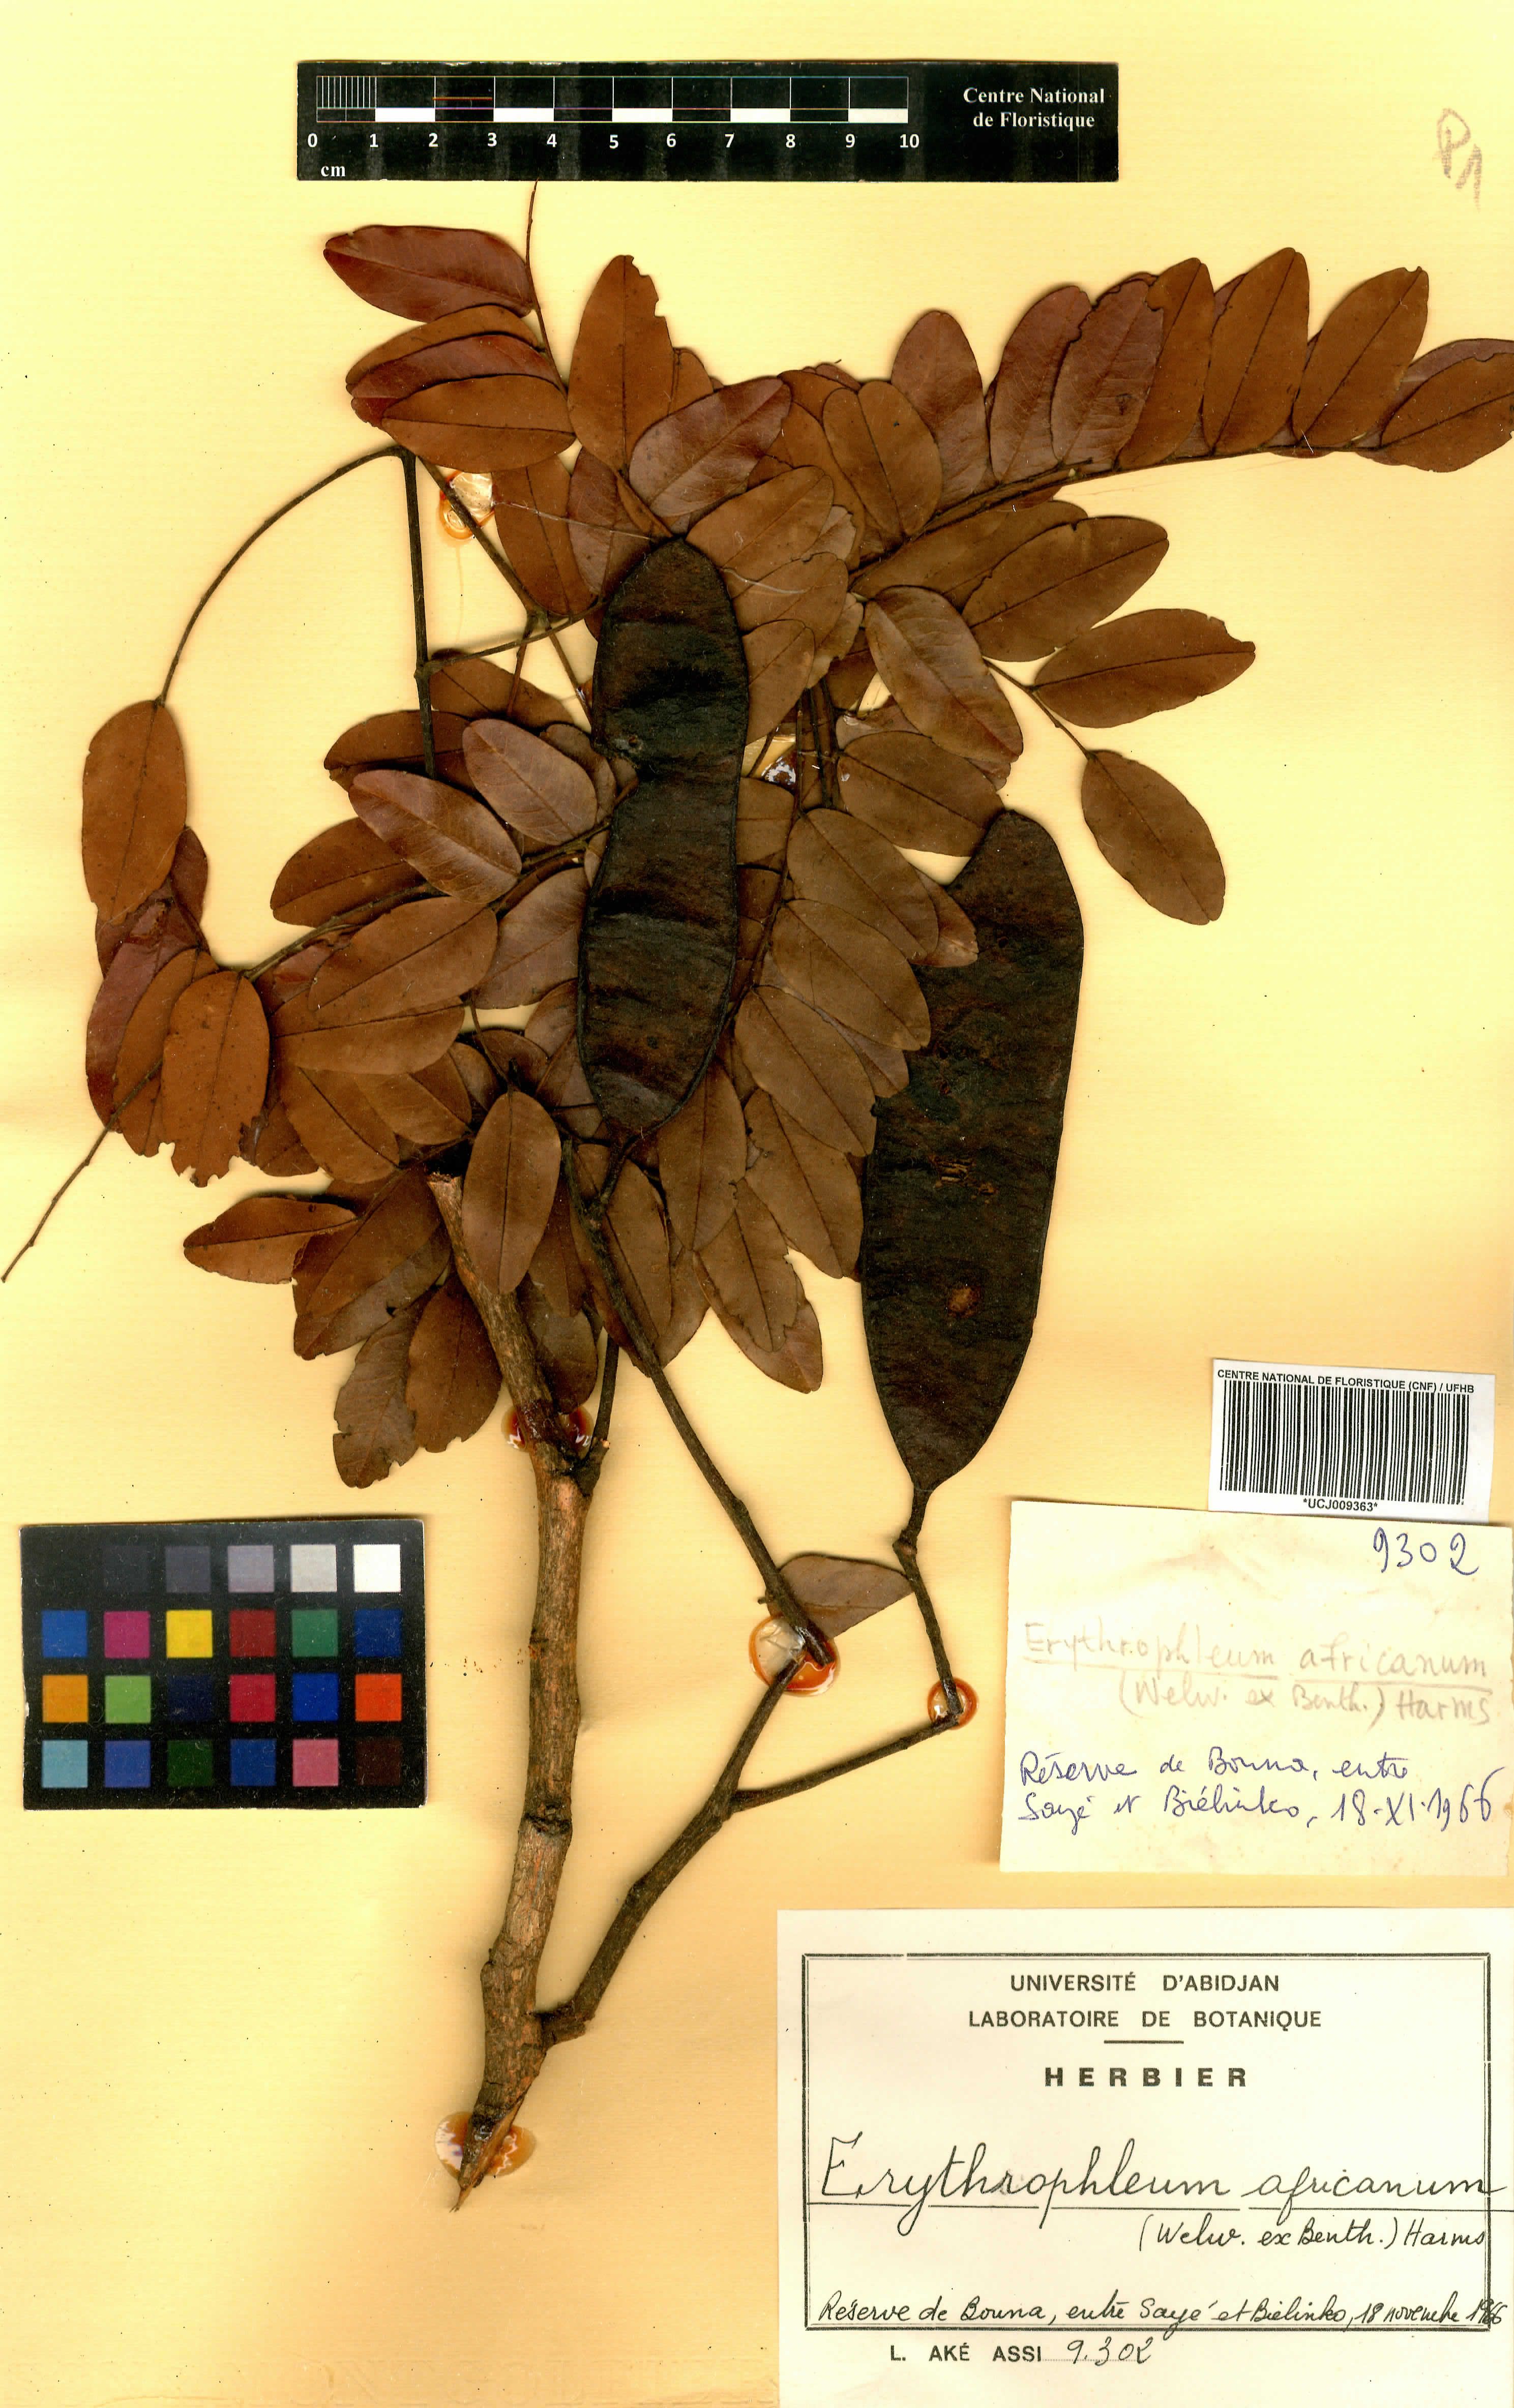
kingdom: Plantae
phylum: Tracheophyta
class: Magnoliopsida
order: Fabales
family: Fabaceae
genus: Erythrophleum
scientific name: Erythrophleum africanum
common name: African blackwood
